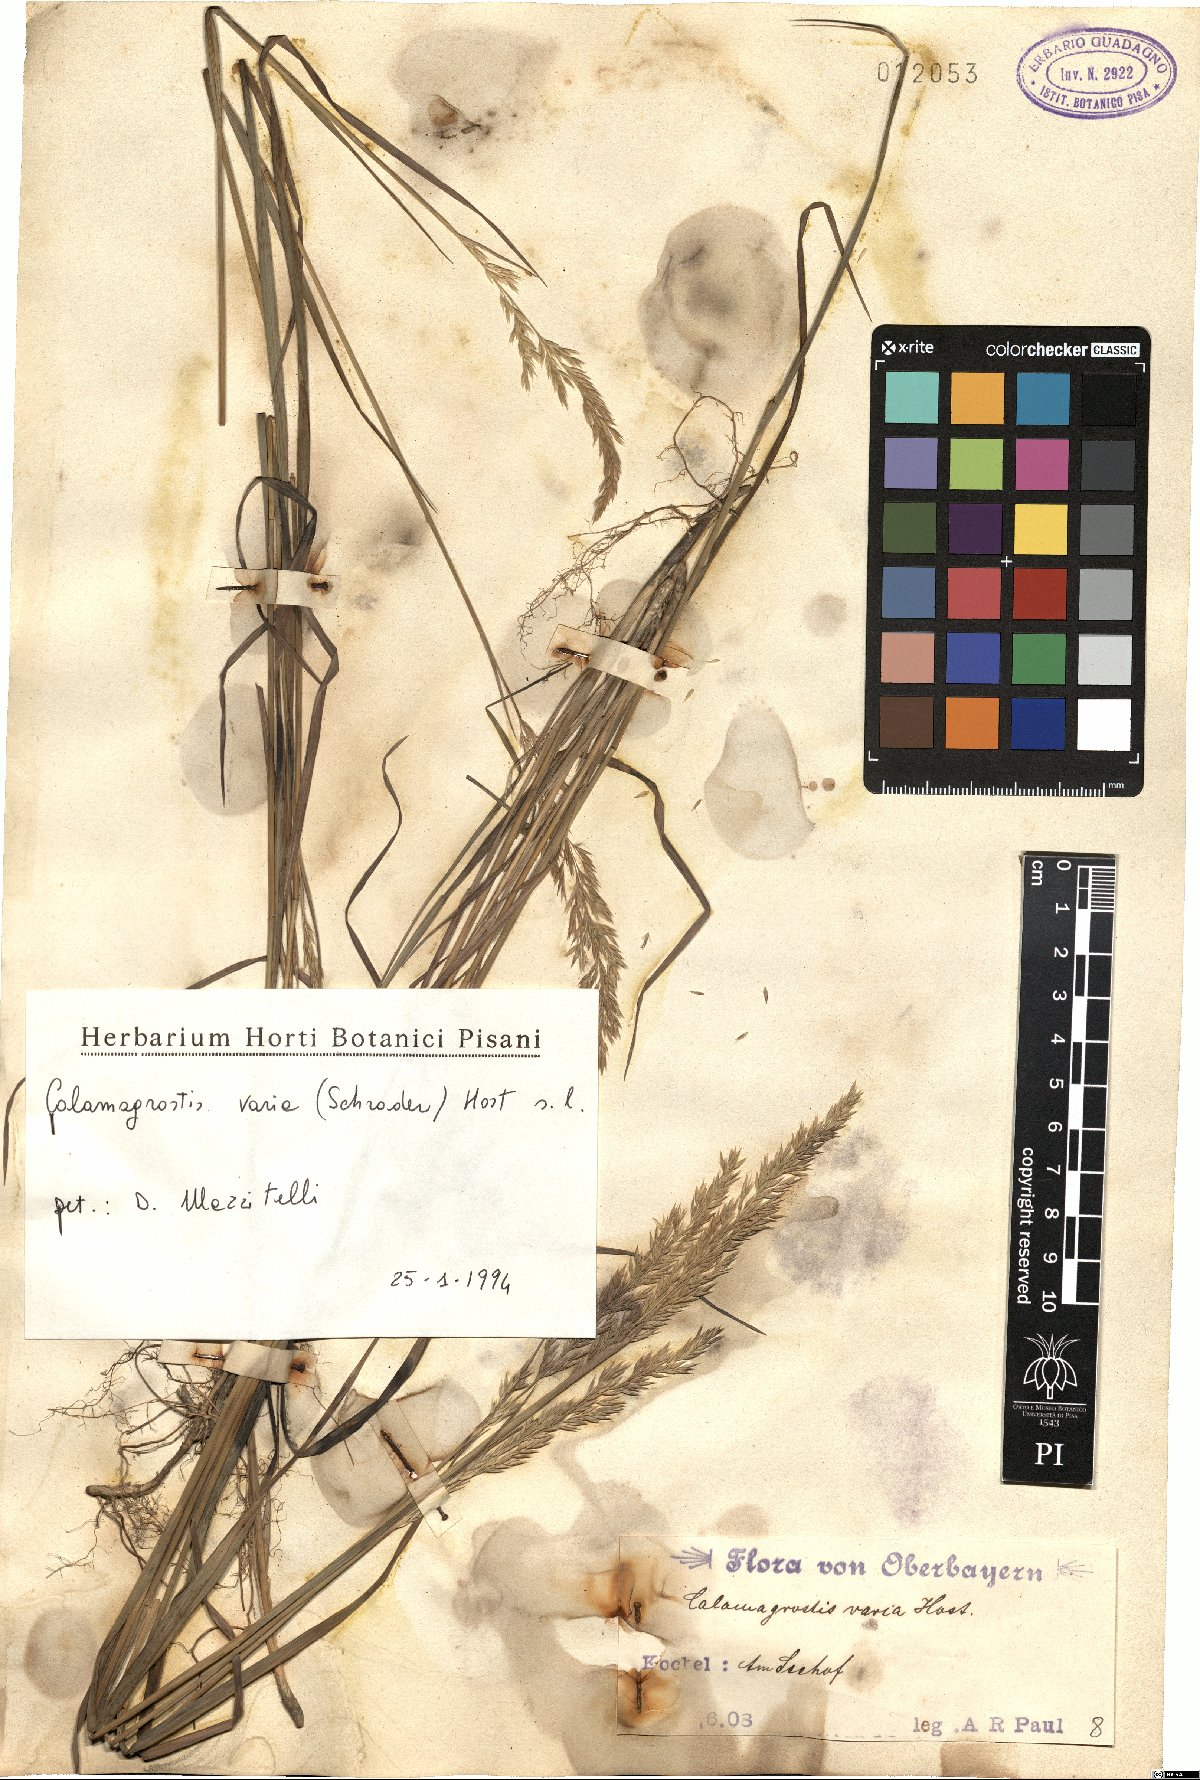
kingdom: Plantae
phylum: Tracheophyta
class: Liliopsida
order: Poales
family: Poaceae
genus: Calamagrostis
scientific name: Calamagrostis varia
